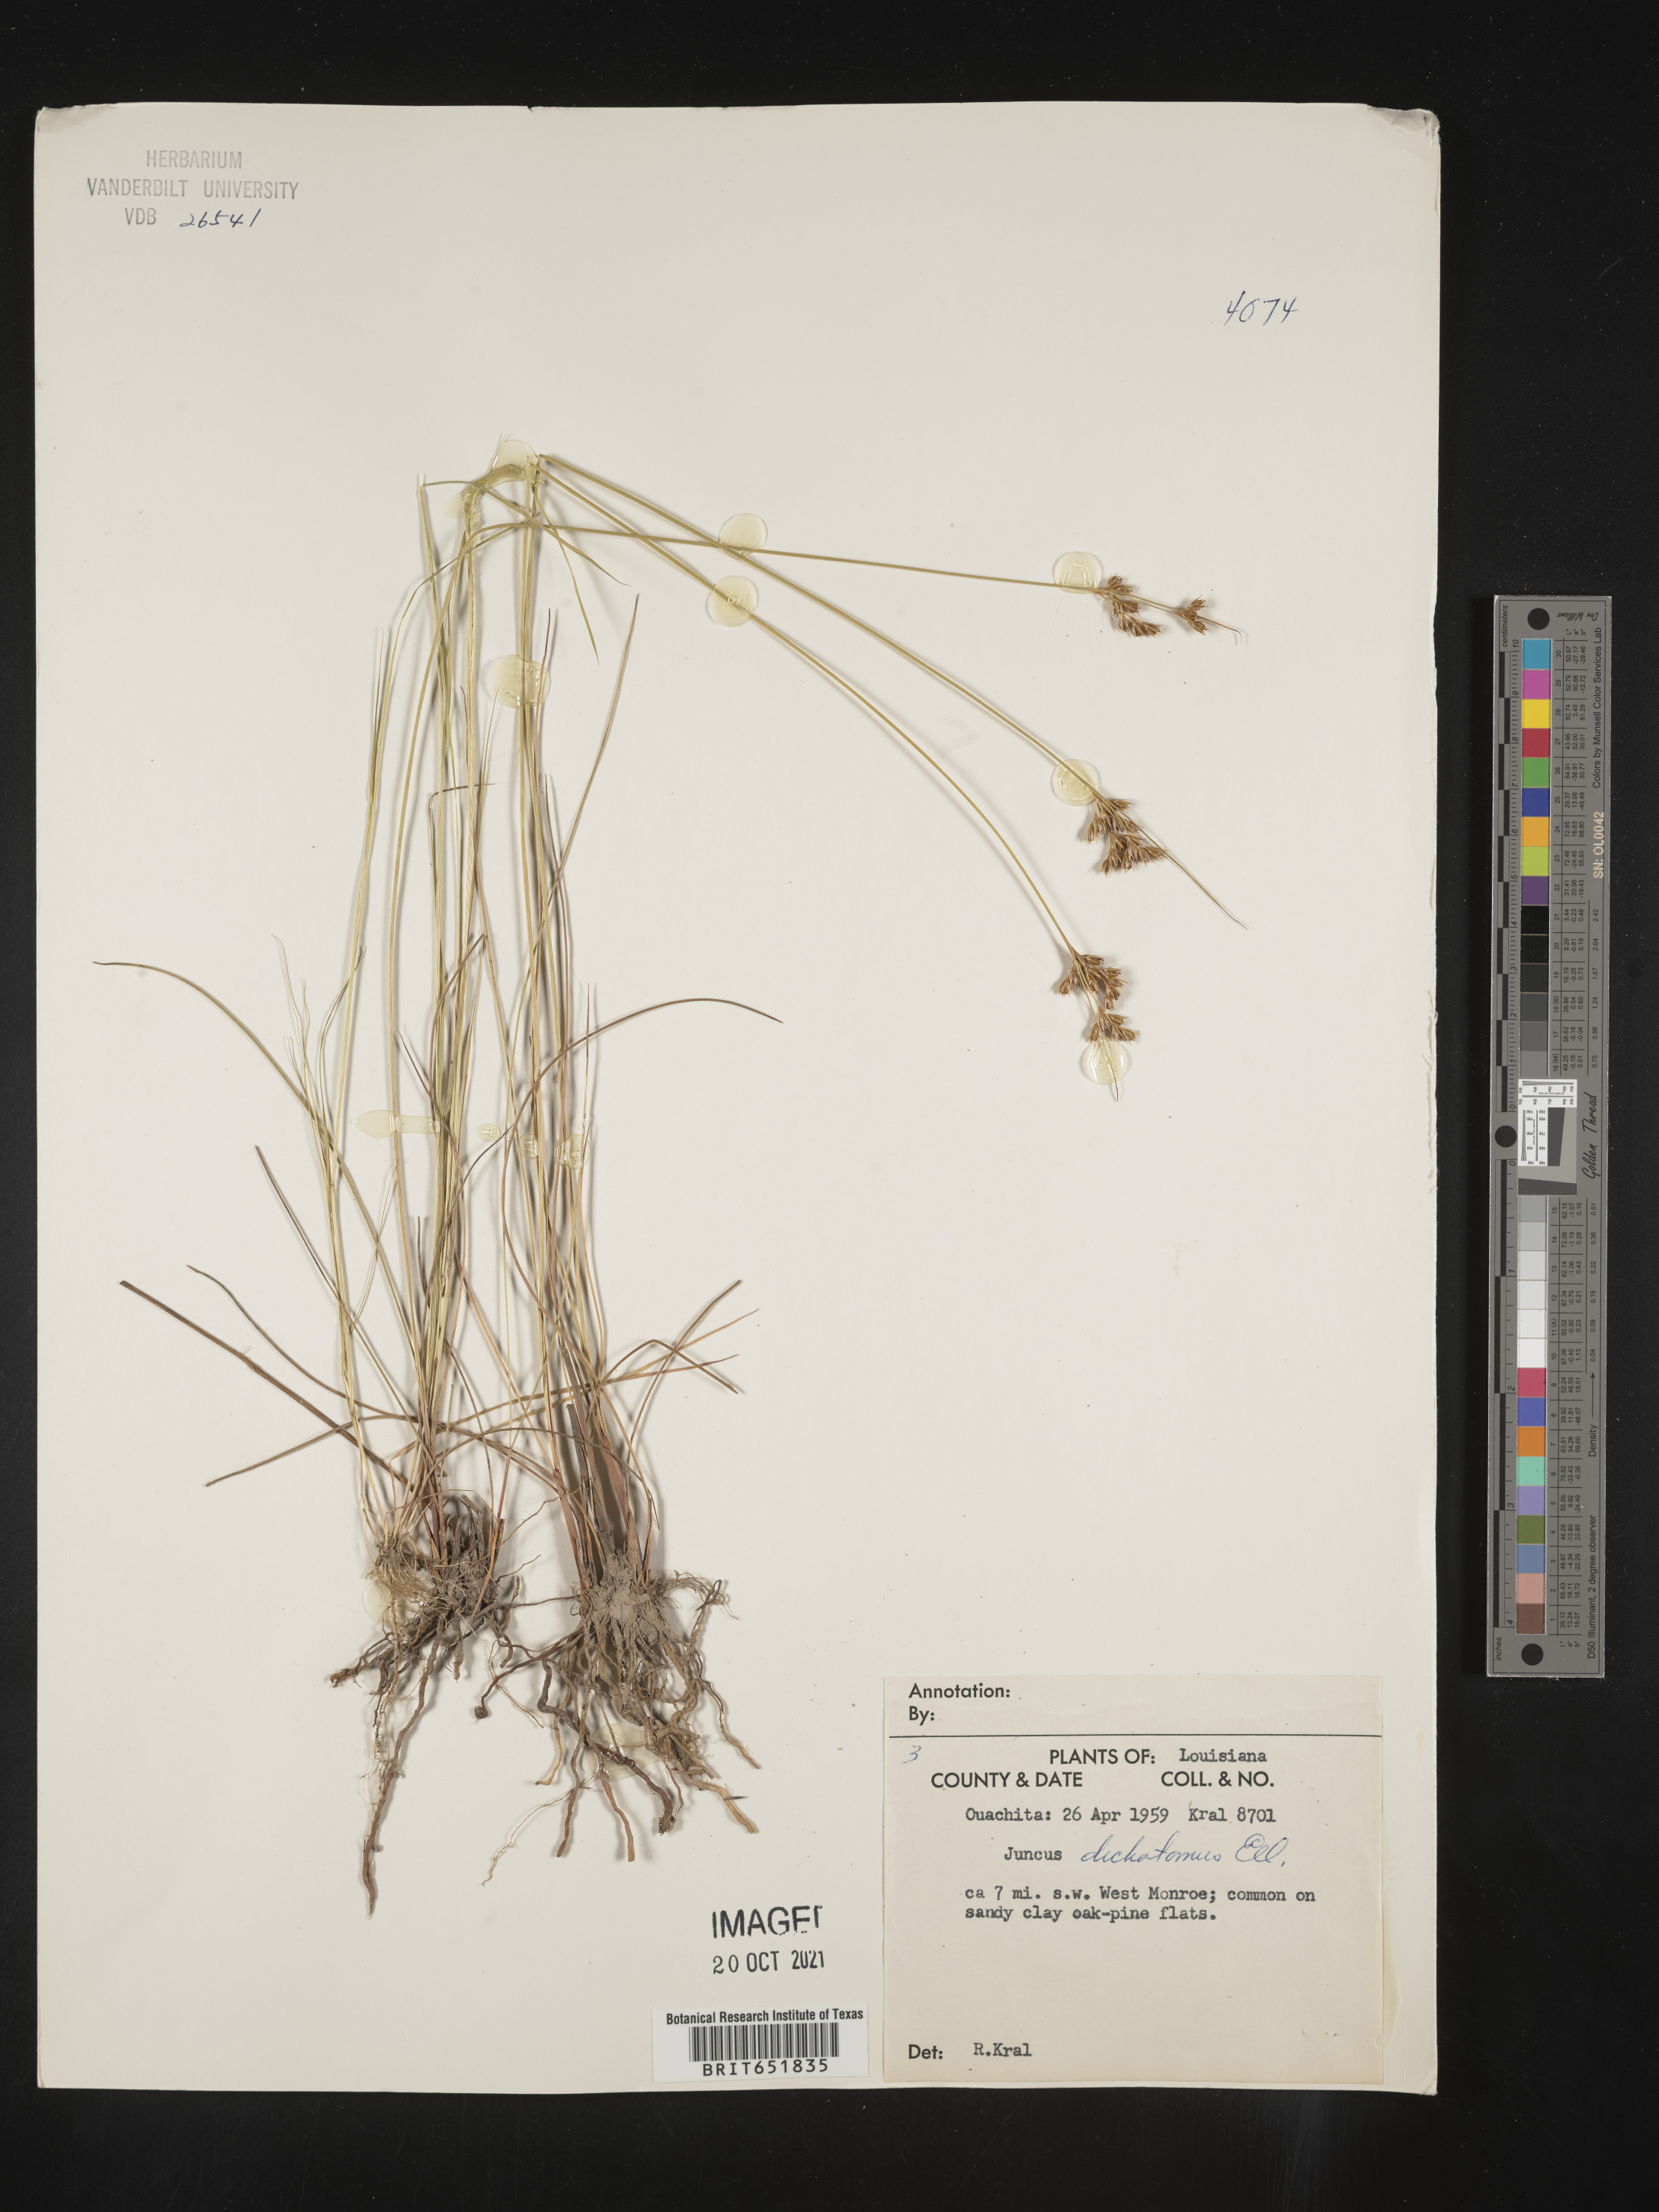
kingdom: Plantae
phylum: Tracheophyta
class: Liliopsida
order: Poales
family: Juncaceae
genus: Juncus
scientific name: Juncus dichotomus
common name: Forked rush
